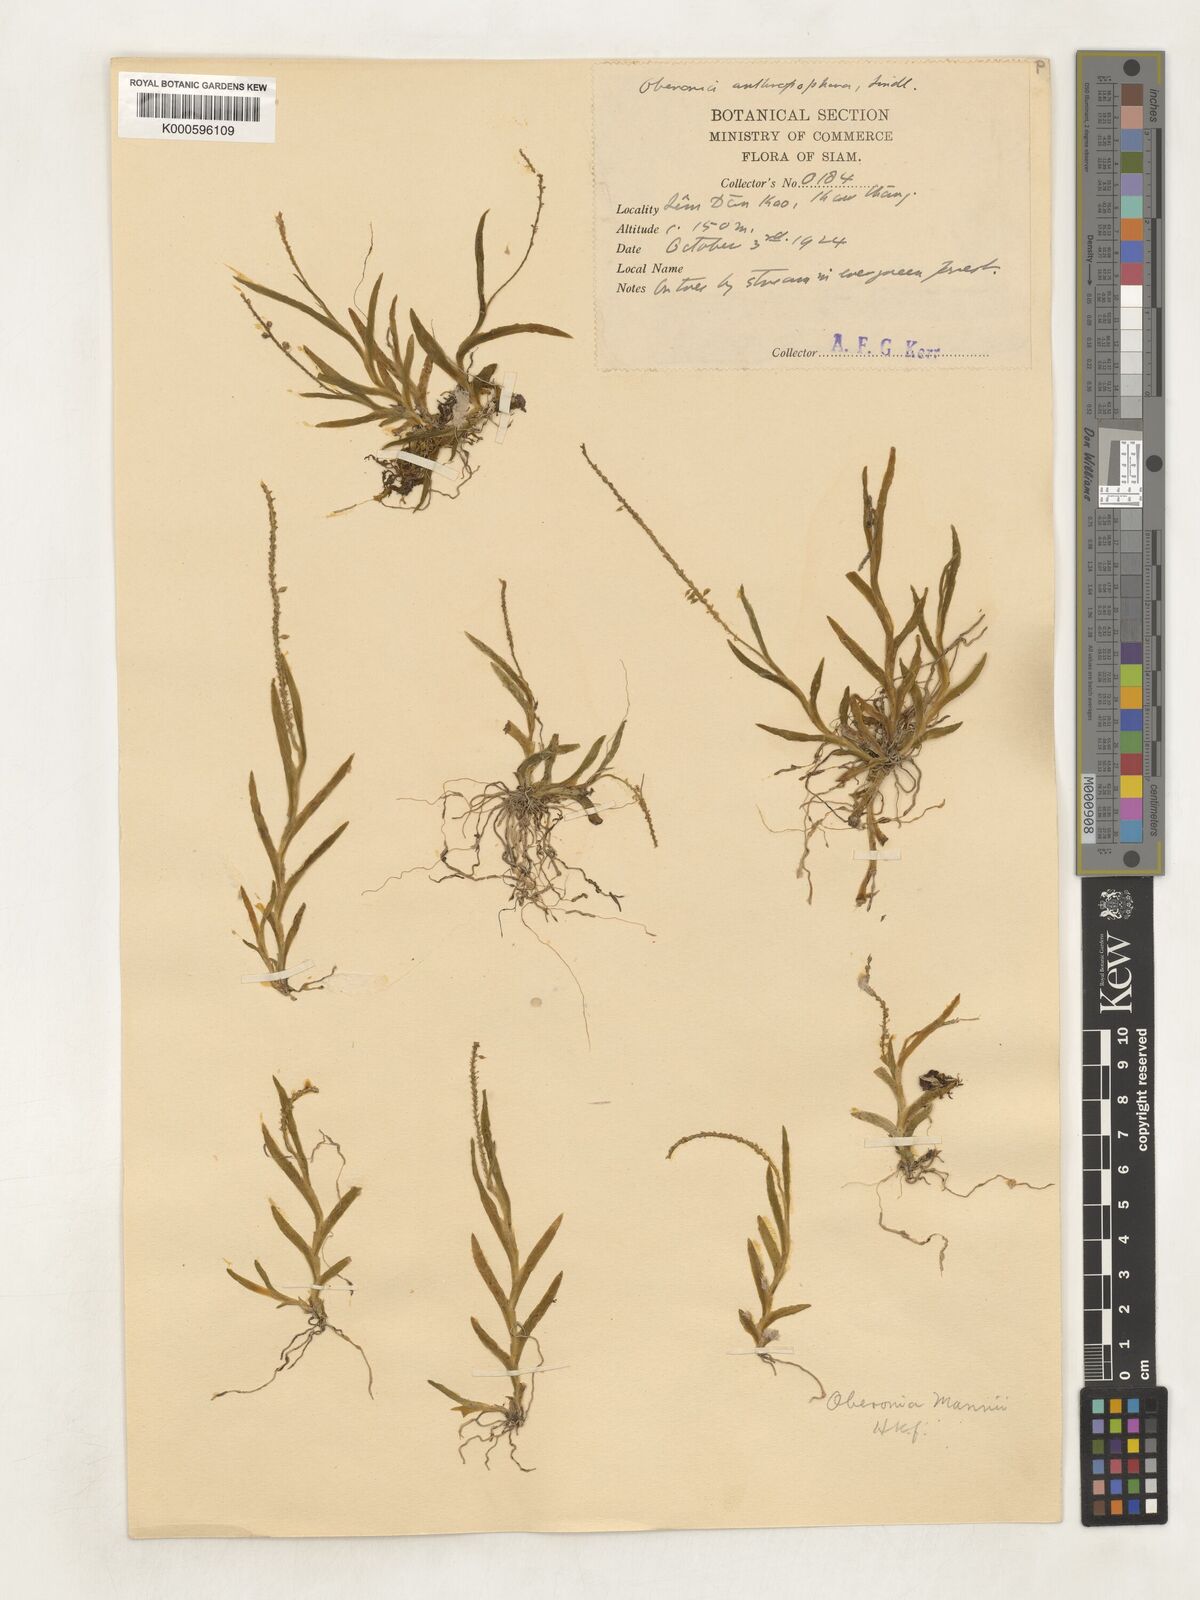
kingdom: Plantae
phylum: Tracheophyta
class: Liliopsida
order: Asparagales
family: Orchidaceae
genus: Oberonia
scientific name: Oberonia mannii
